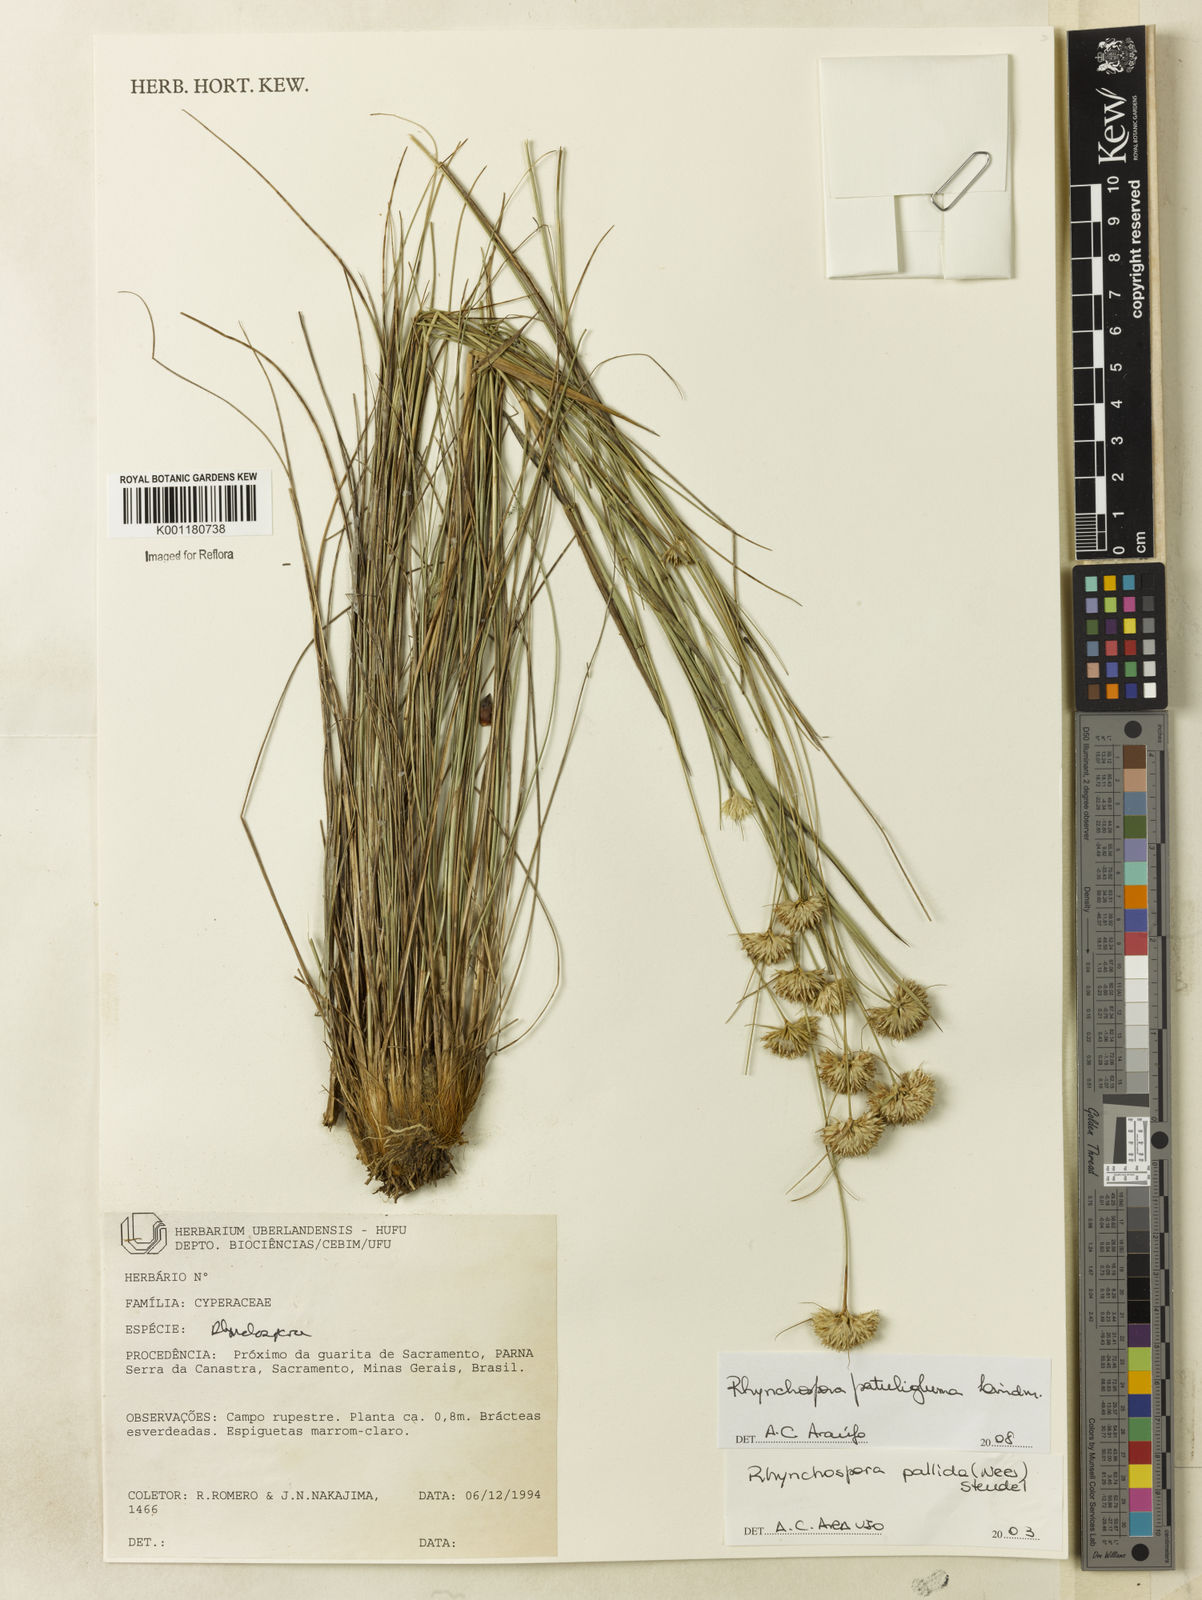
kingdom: Plantae
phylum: Tracheophyta
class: Liliopsida
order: Poales
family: Cyperaceae
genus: Rhynchospora
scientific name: Rhynchospora patuligluma
